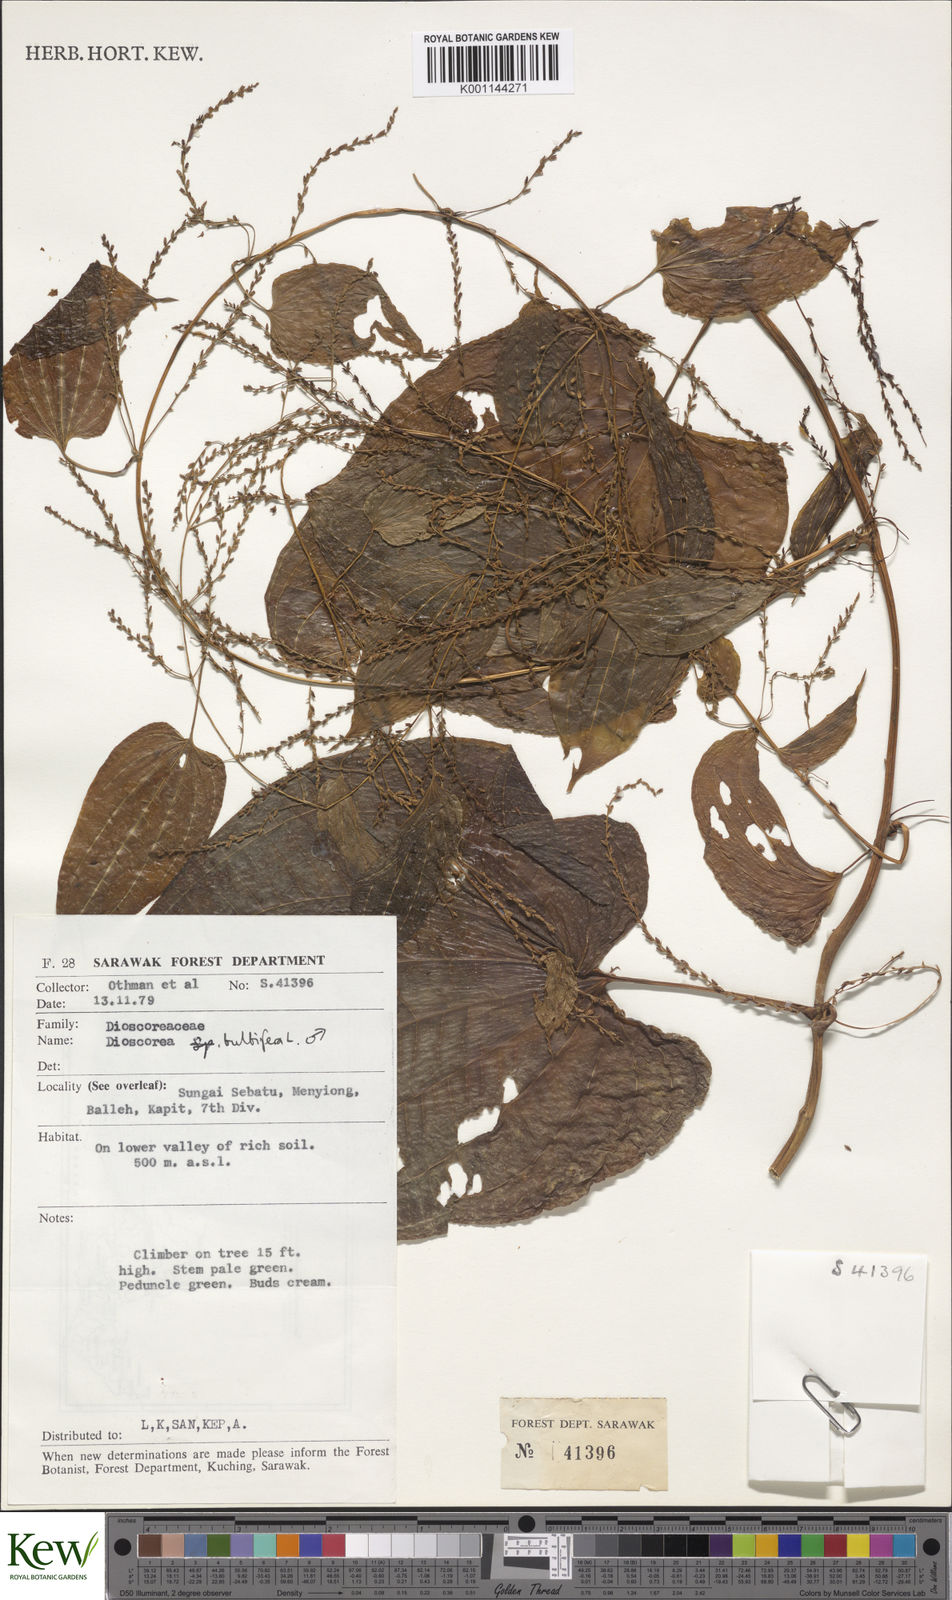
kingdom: Plantae
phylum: Tracheophyta
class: Liliopsida
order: Dioscoreales
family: Dioscoreaceae
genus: Dioscorea
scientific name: Dioscorea bulbifera
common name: Air yam
